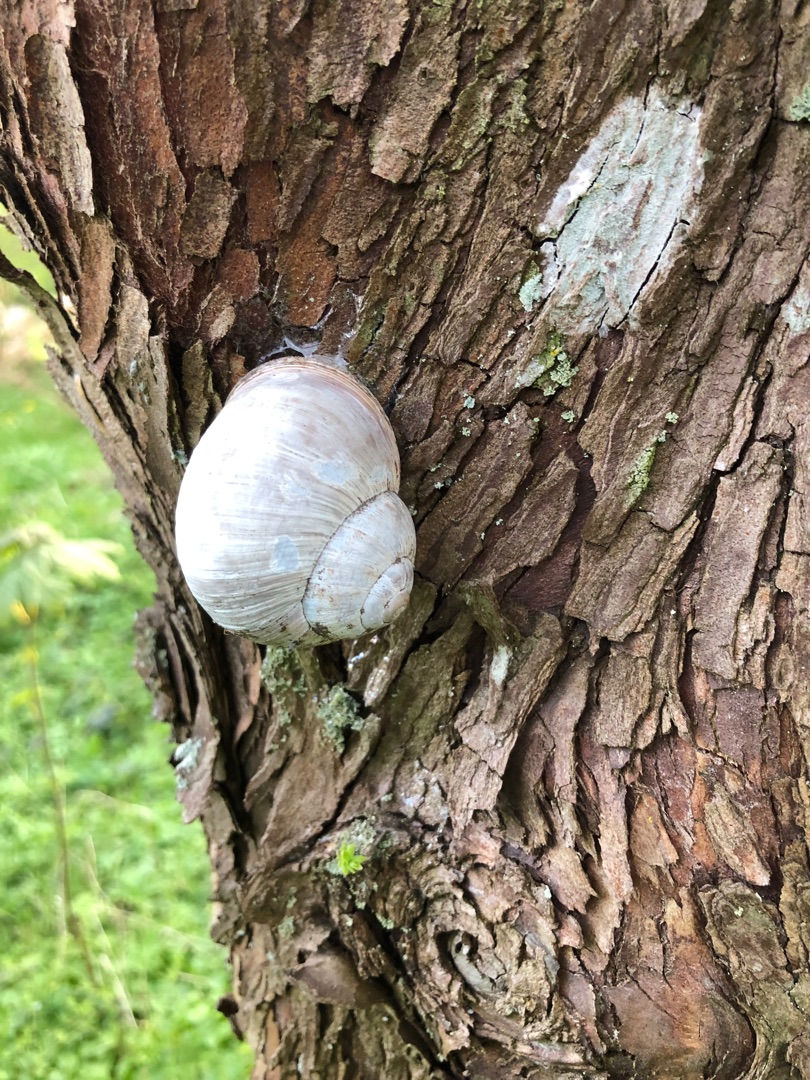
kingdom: Animalia
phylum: Mollusca
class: Gastropoda
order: Stylommatophora
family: Helicidae
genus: Helix
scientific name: Helix pomatia
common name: Vinbjergsnegl
